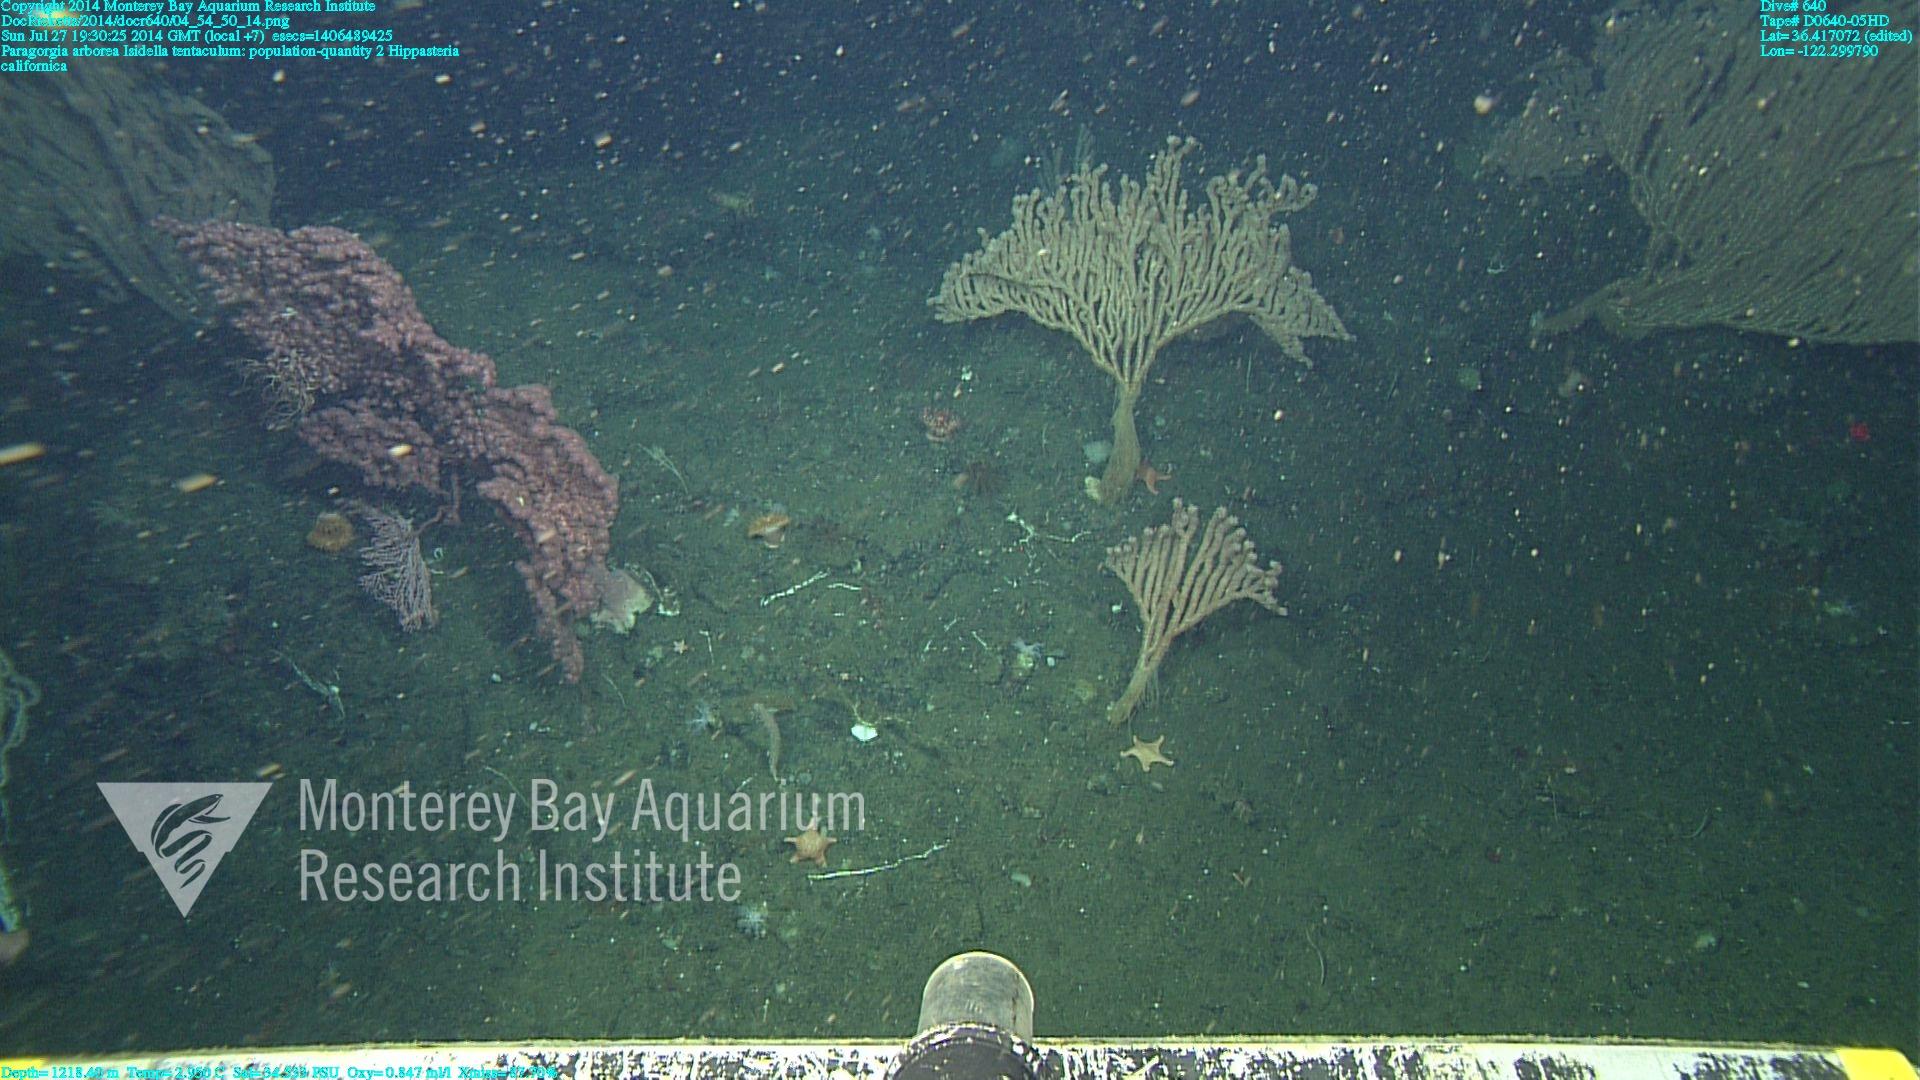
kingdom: Animalia
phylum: Cnidaria
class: Anthozoa
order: Scleralcyonacea
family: Coralliidae
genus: Paragorgia
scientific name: Paragorgia arborea
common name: Bubble gum coral
